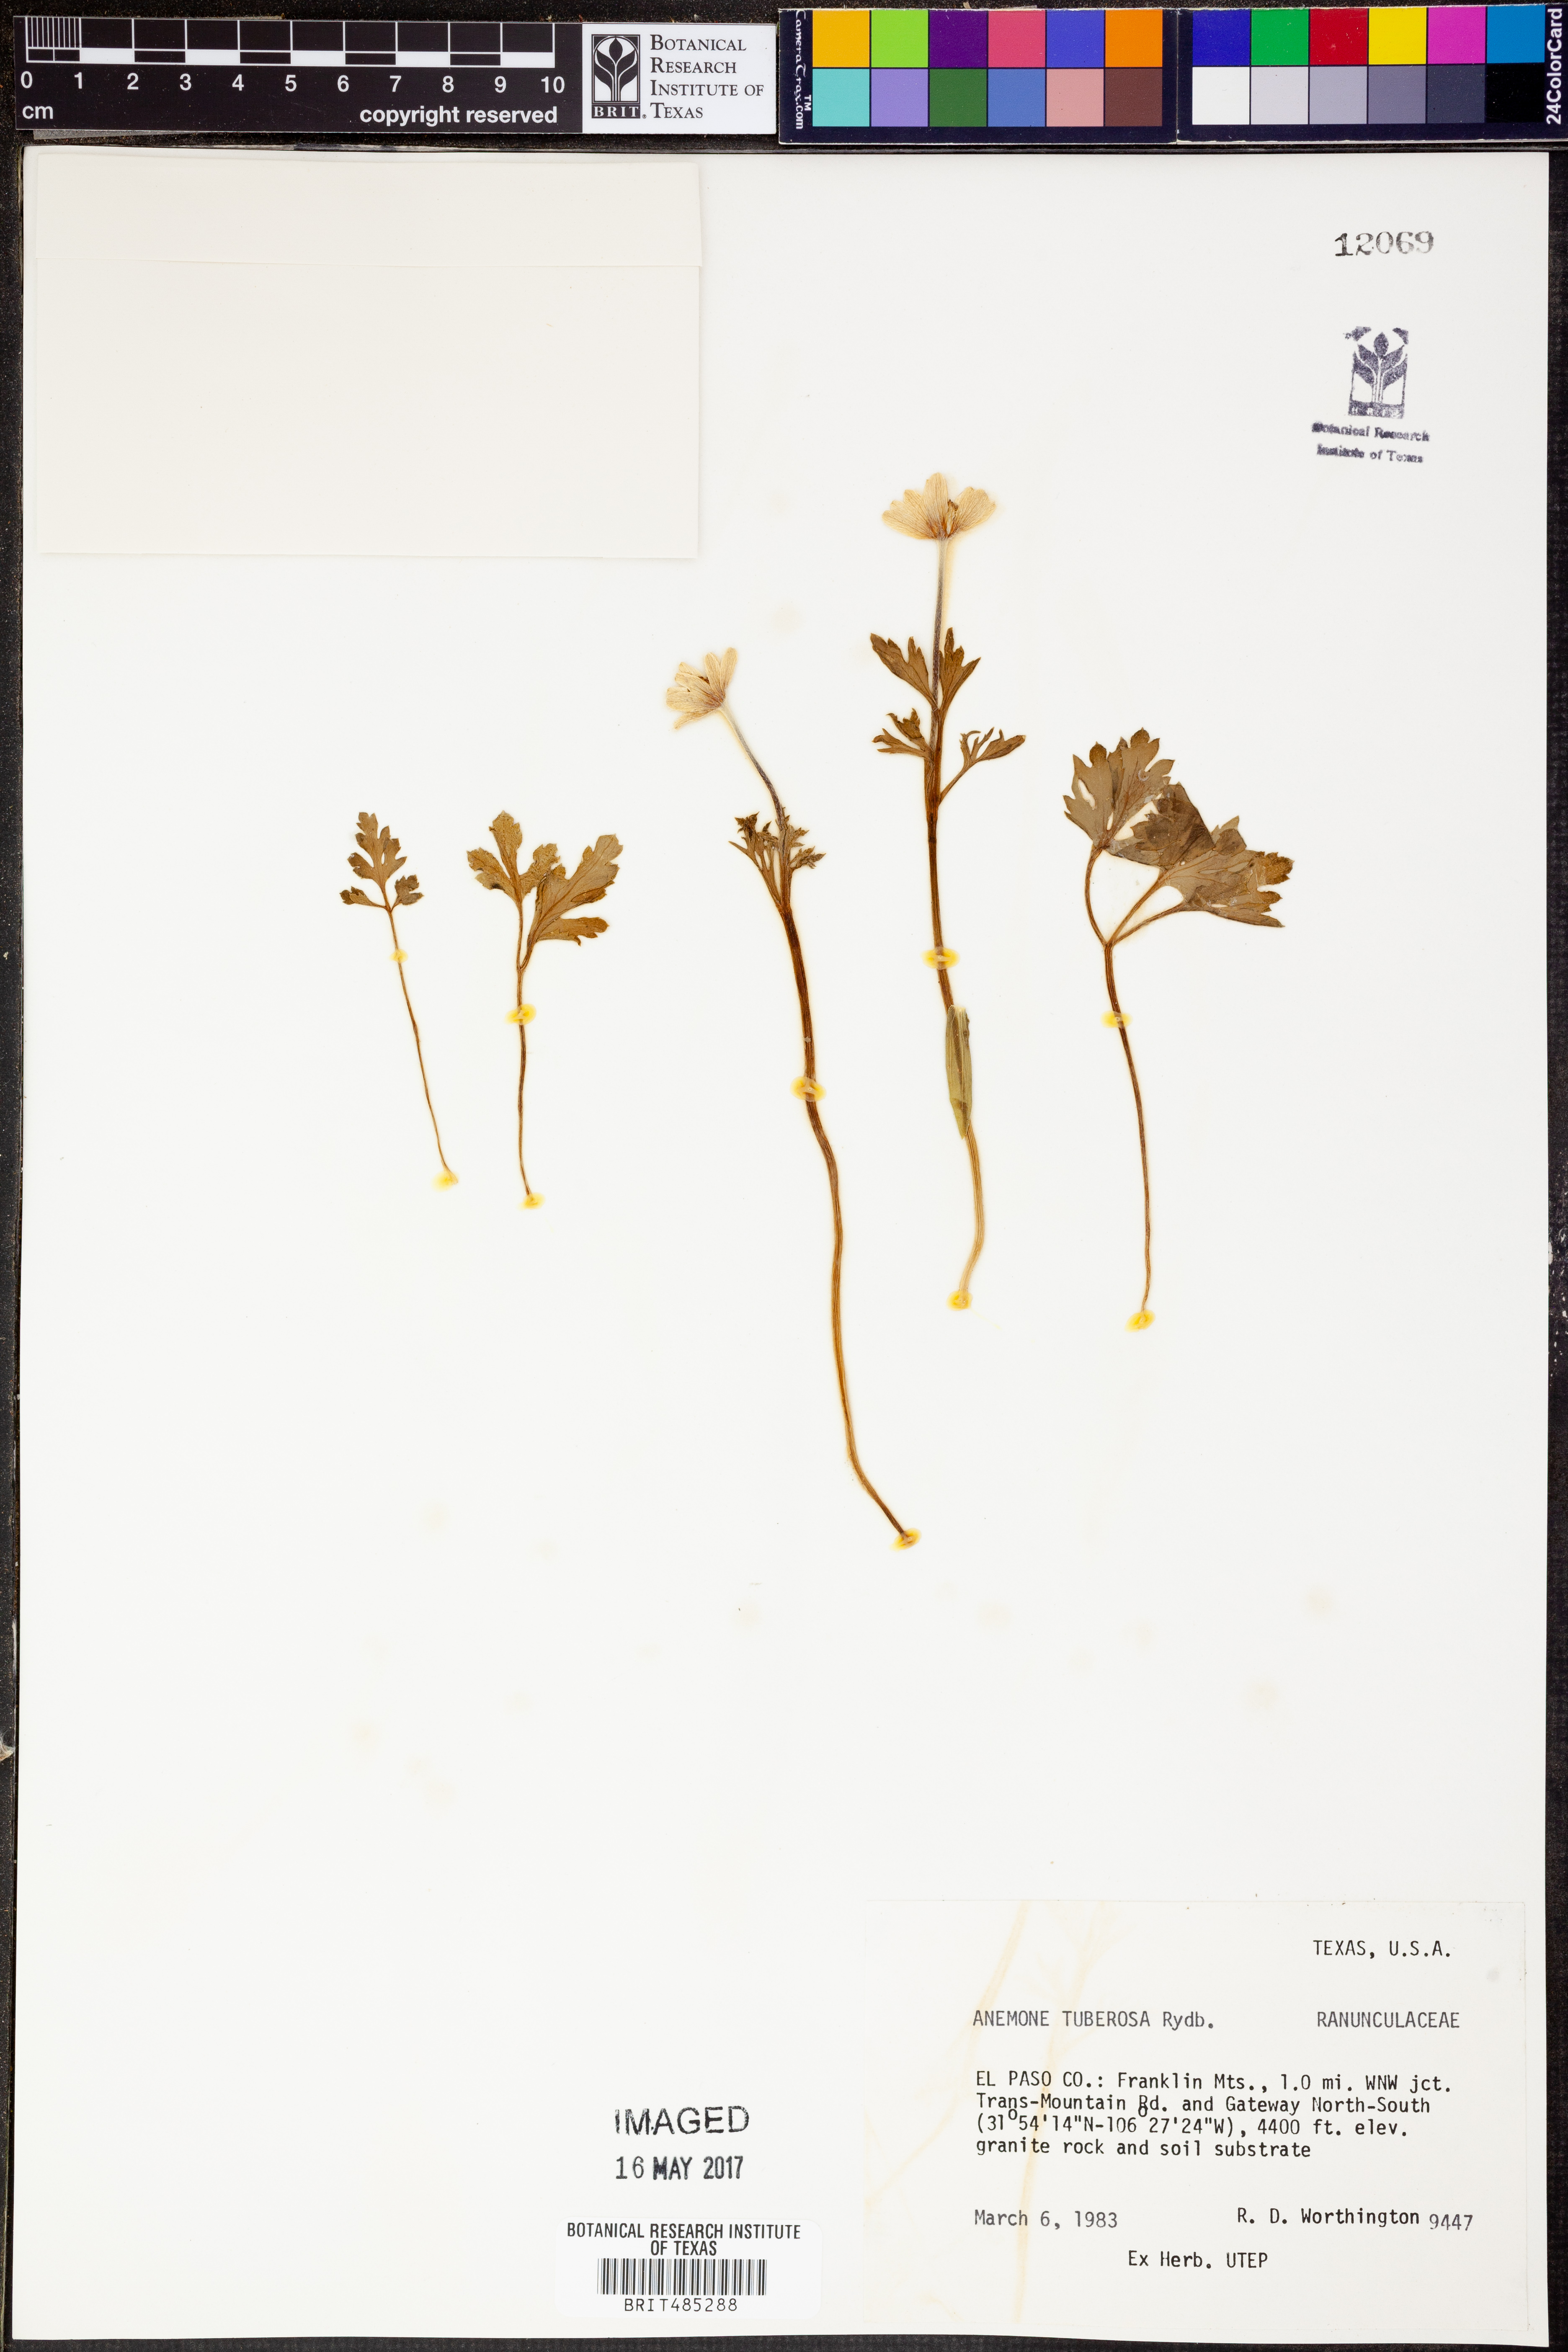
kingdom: Plantae
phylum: Tracheophyta
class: Magnoliopsida
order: Ranunculales
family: Ranunculaceae
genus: Anemone
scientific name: Anemone tuberosa
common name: Desert anemone
